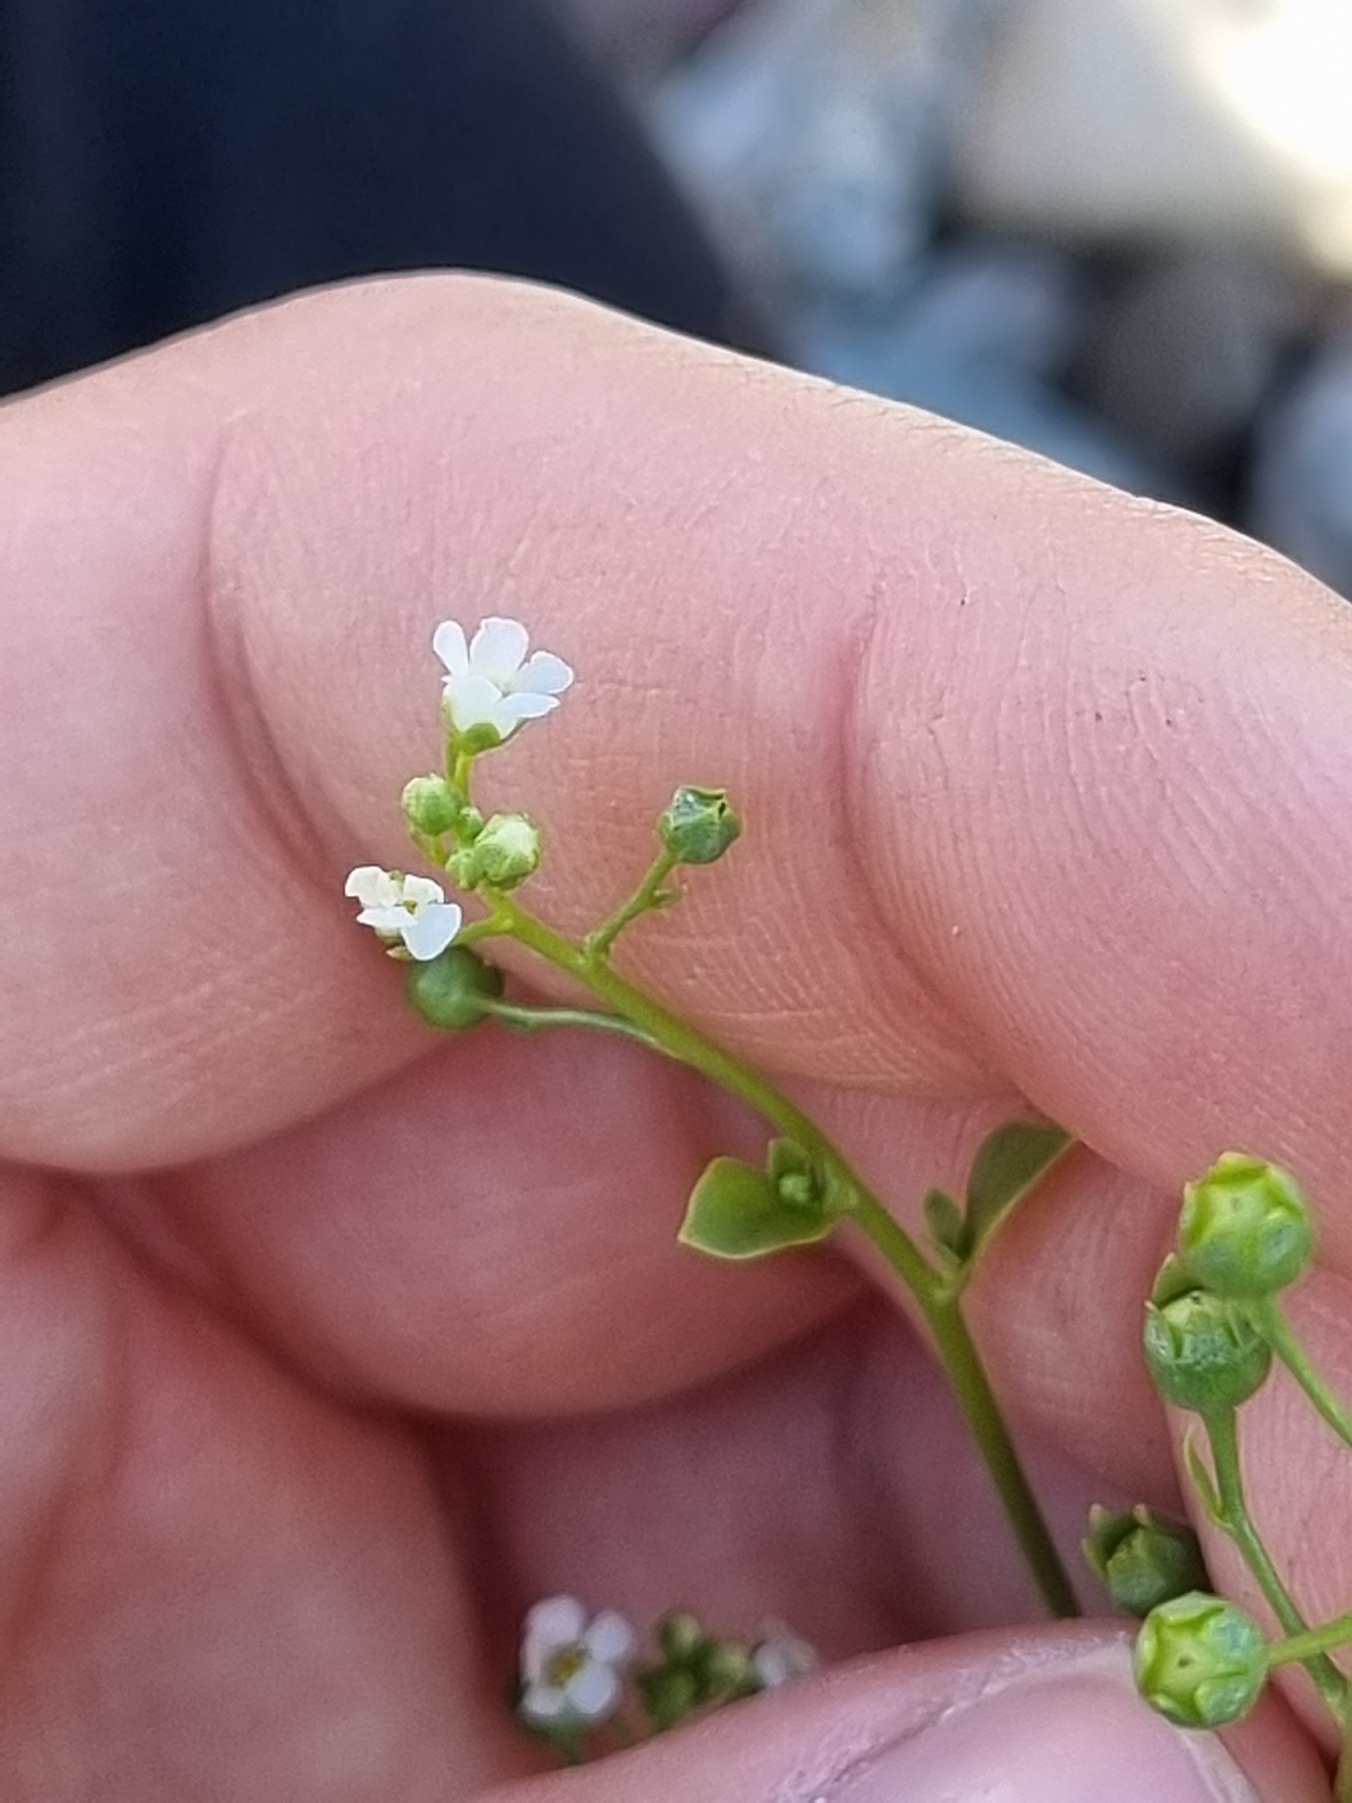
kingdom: Plantae
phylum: Tracheophyta
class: Magnoliopsida
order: Ericales
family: Primulaceae
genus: Samolus
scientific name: Samolus valerandi
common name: Samel
